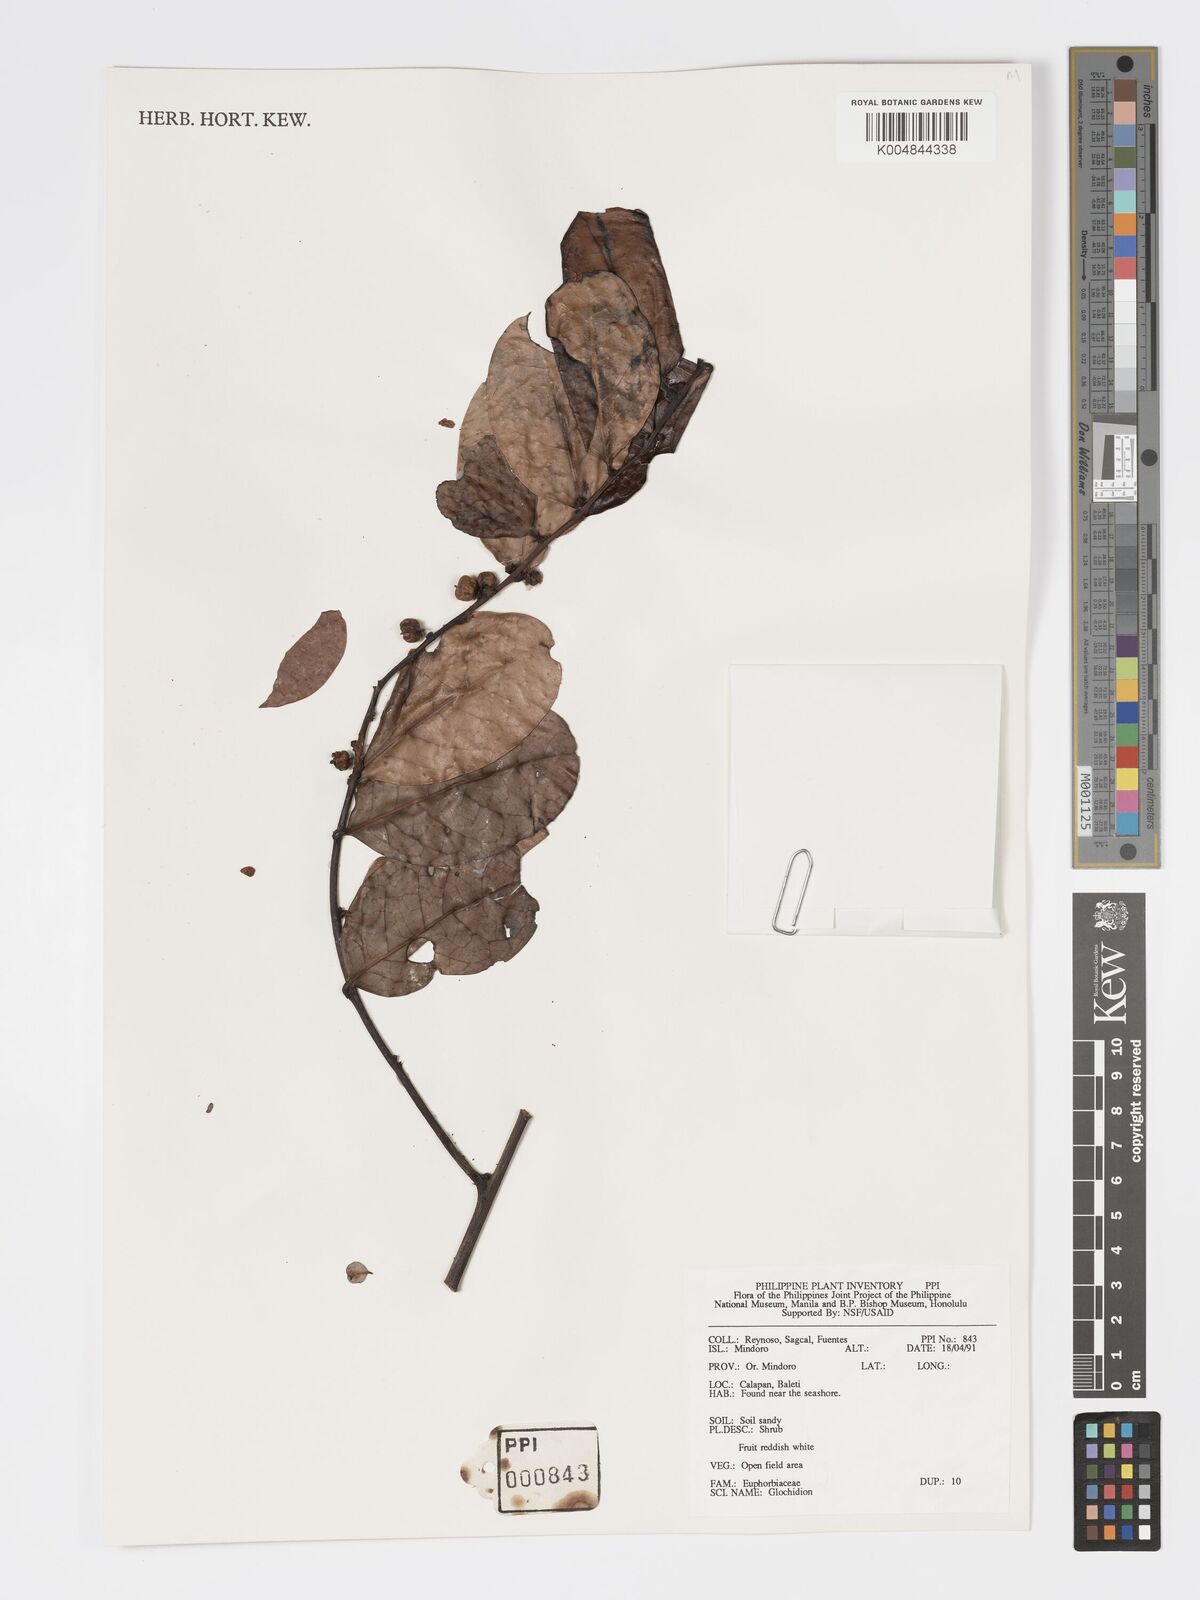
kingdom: Plantae
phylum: Tracheophyta
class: Magnoliopsida
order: Malpighiales
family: Phyllanthaceae
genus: Glochidion
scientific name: Glochidion
